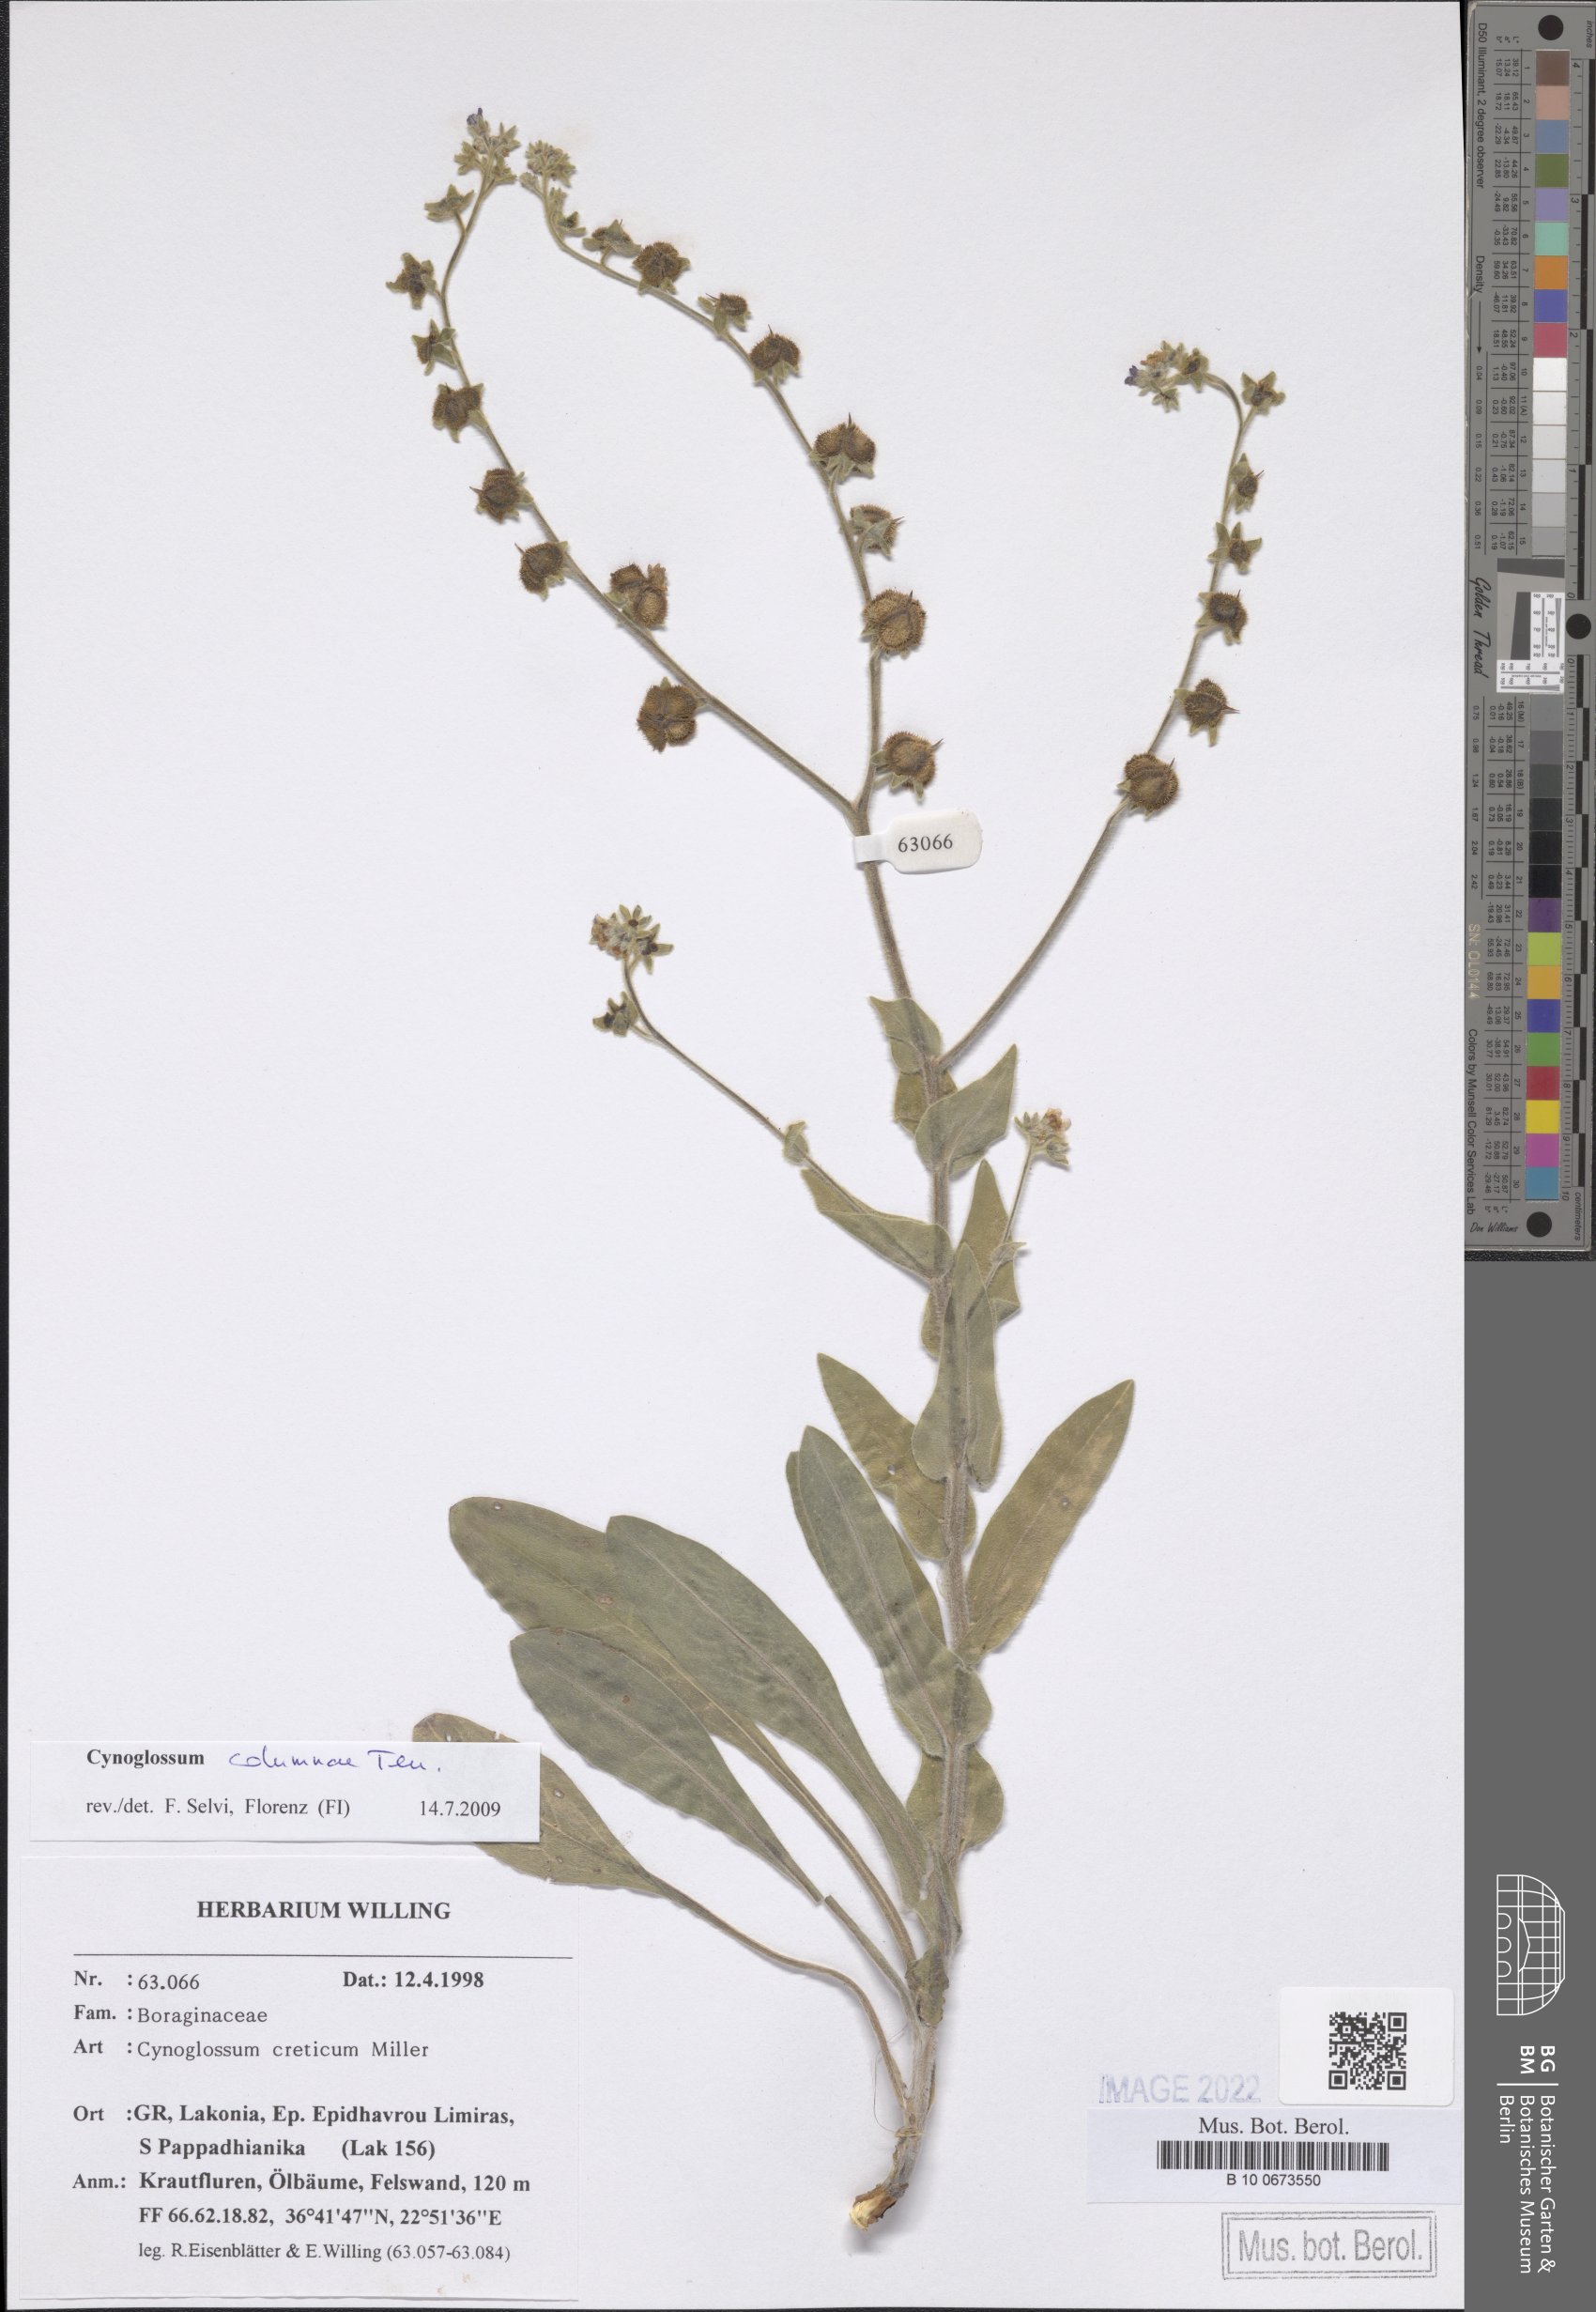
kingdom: Plantae
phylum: Tracheophyta
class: Magnoliopsida
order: Boraginales
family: Boraginaceae
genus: Rindera
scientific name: Rindera columnae
